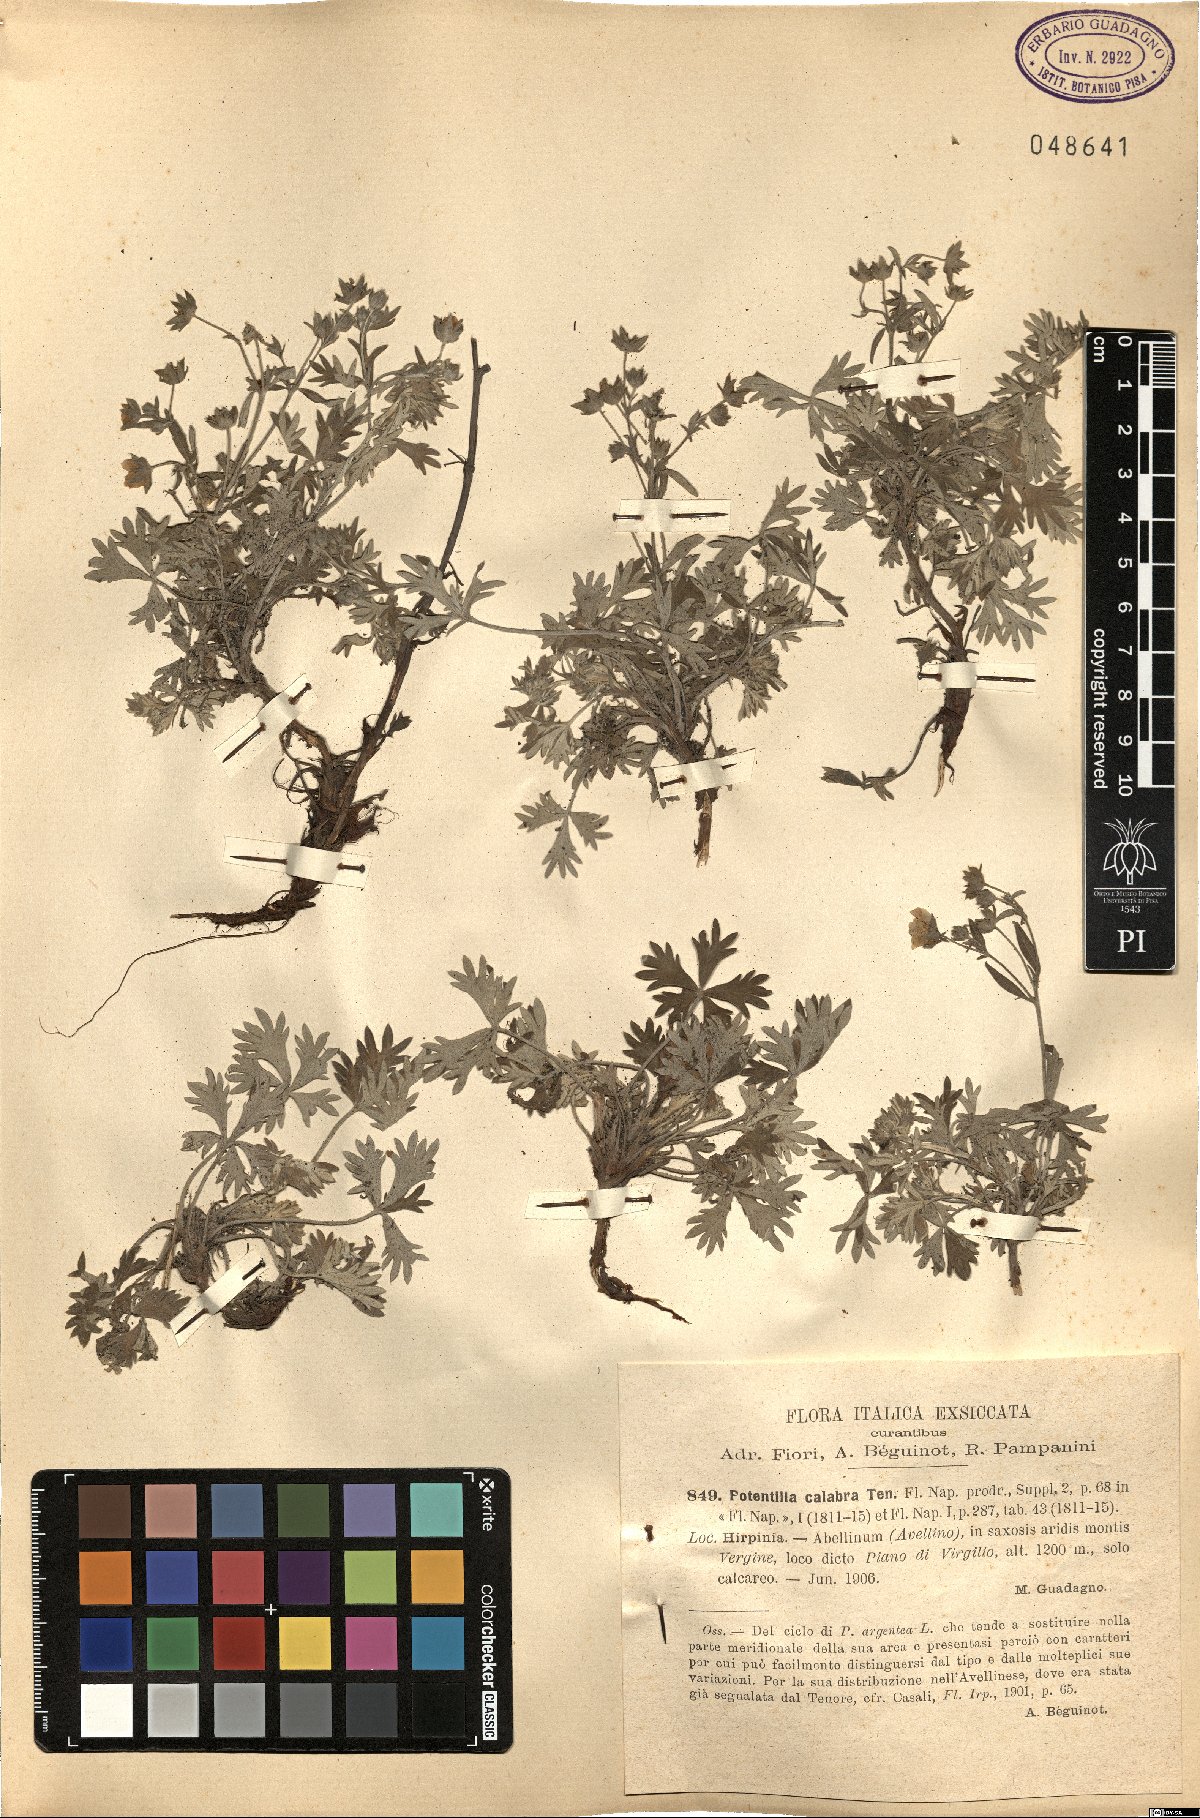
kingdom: Plantae
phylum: Tracheophyta
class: Magnoliopsida
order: Rosales
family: Rosaceae
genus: Potentilla
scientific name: Potentilla calabra
